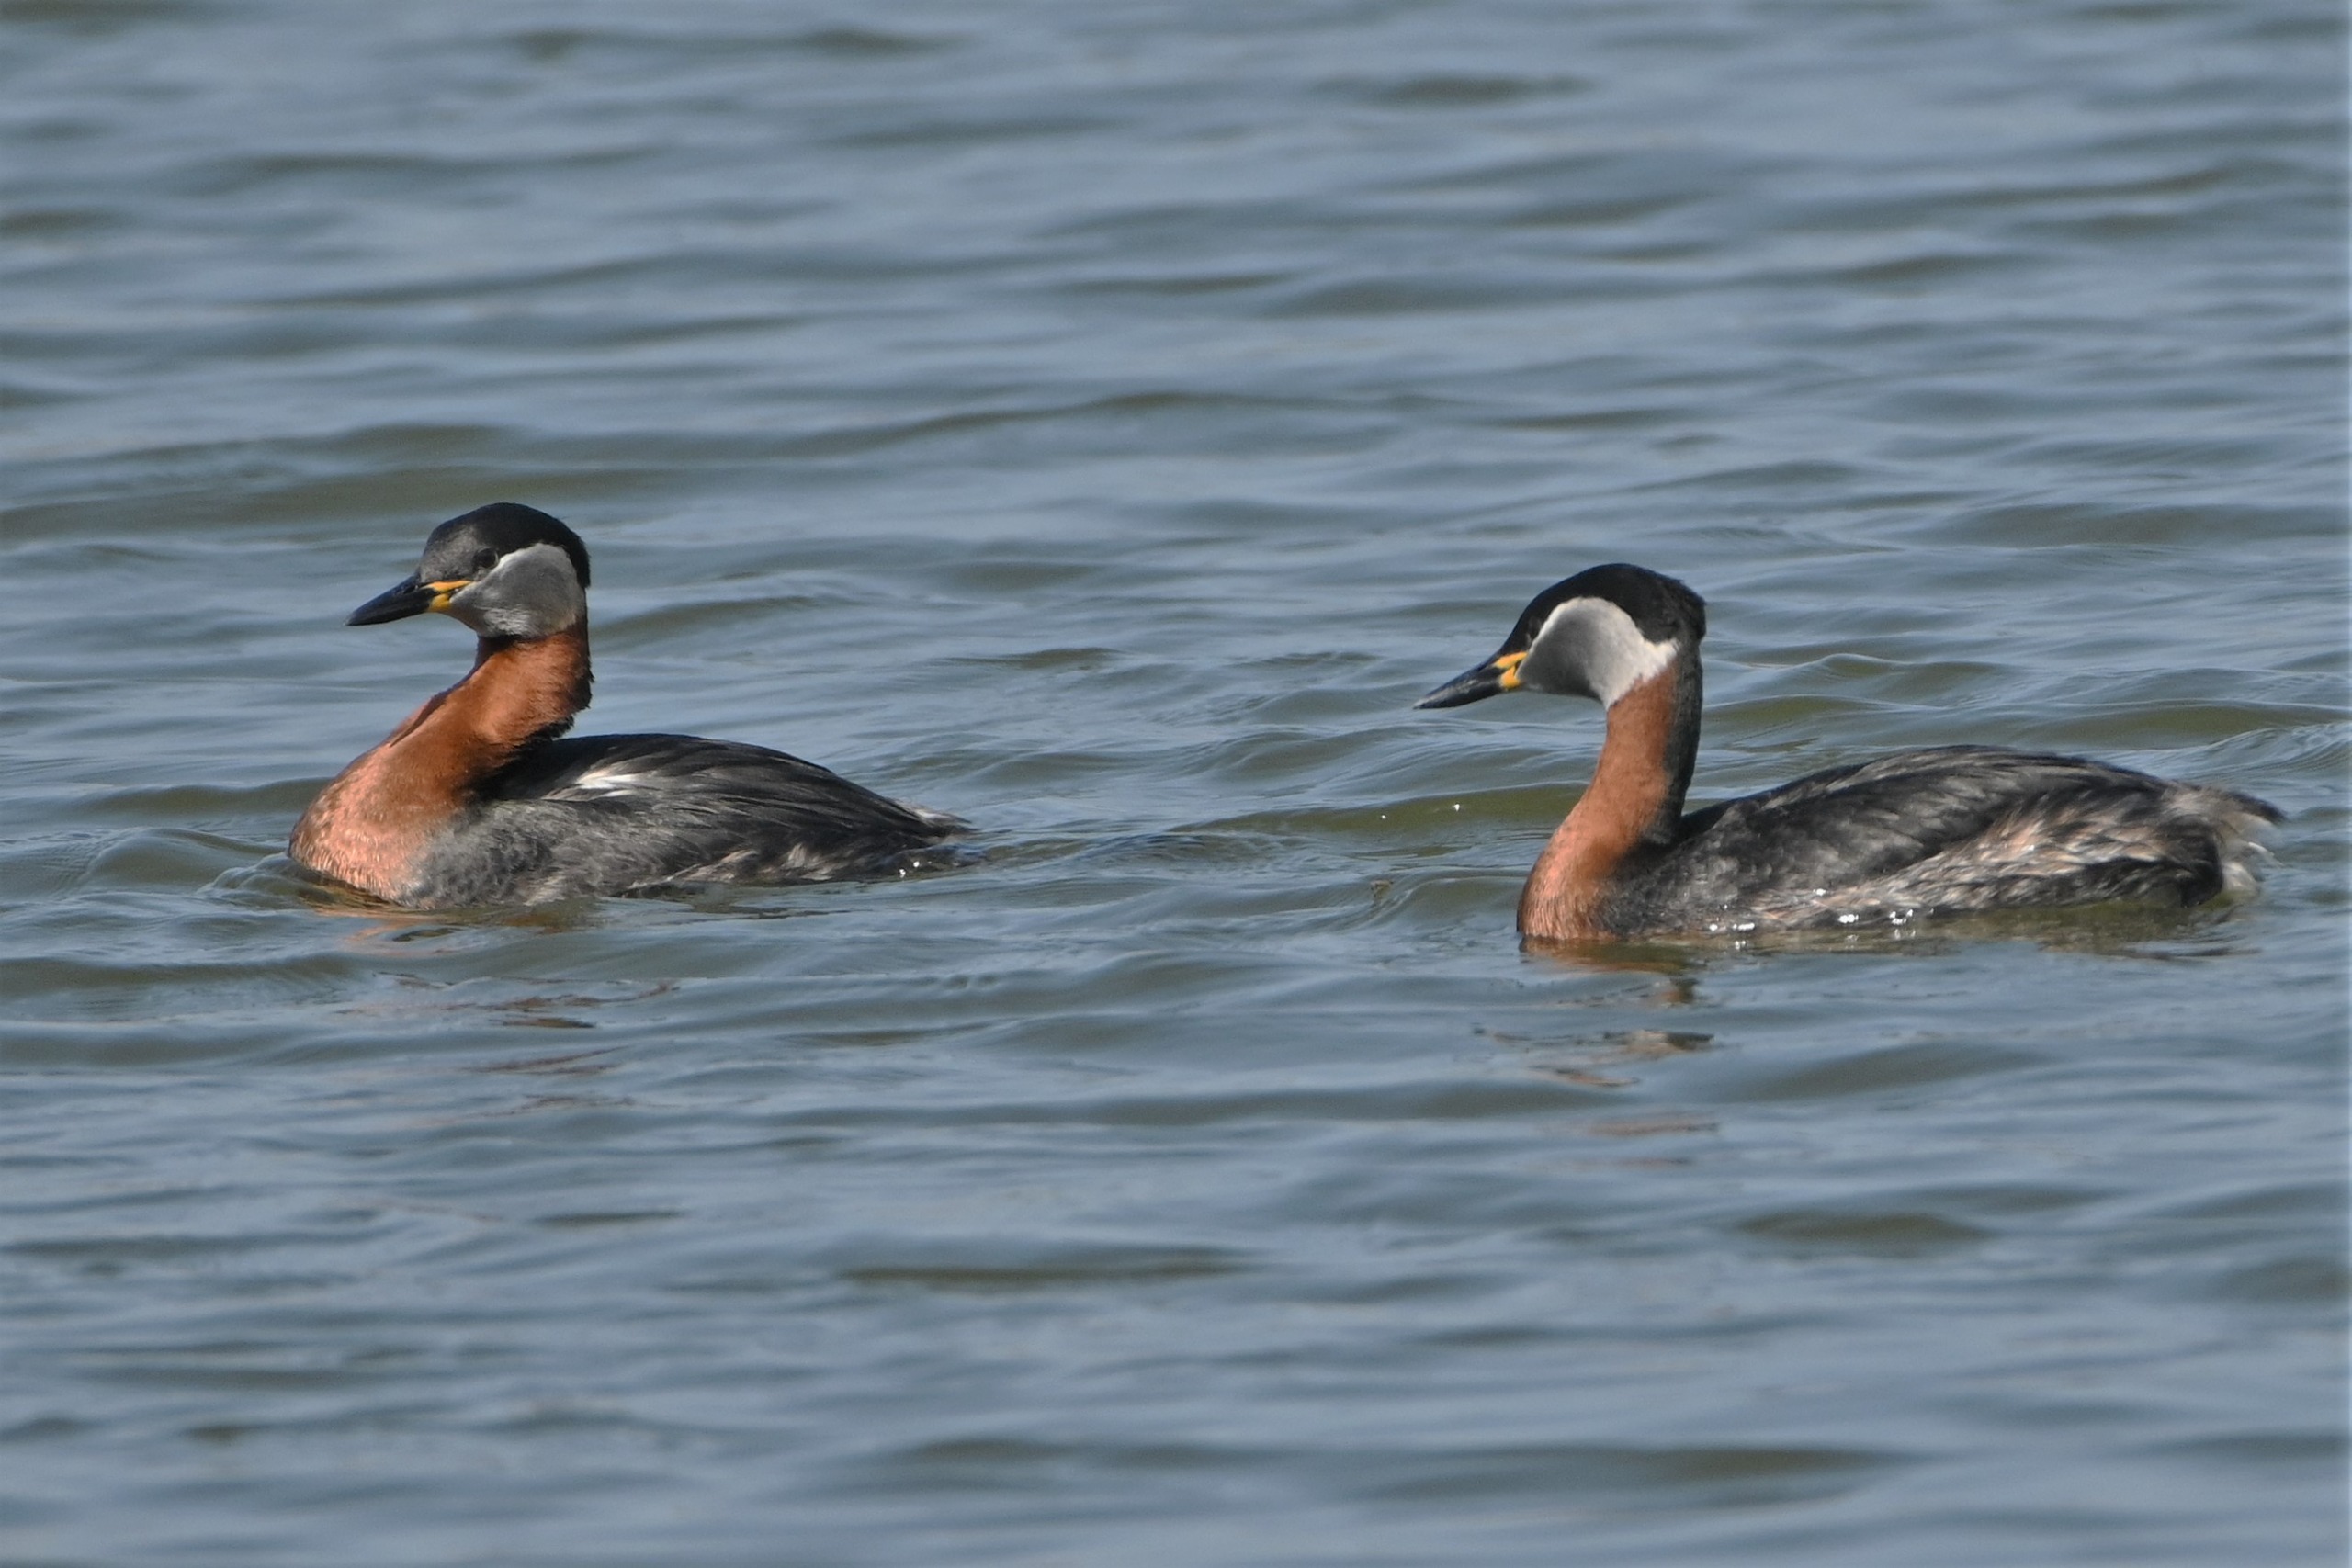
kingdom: Animalia
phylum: Chordata
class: Aves
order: Podicipediformes
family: Podicipedidae
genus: Podiceps
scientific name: Podiceps grisegena
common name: Gråstrubet lappedykker
